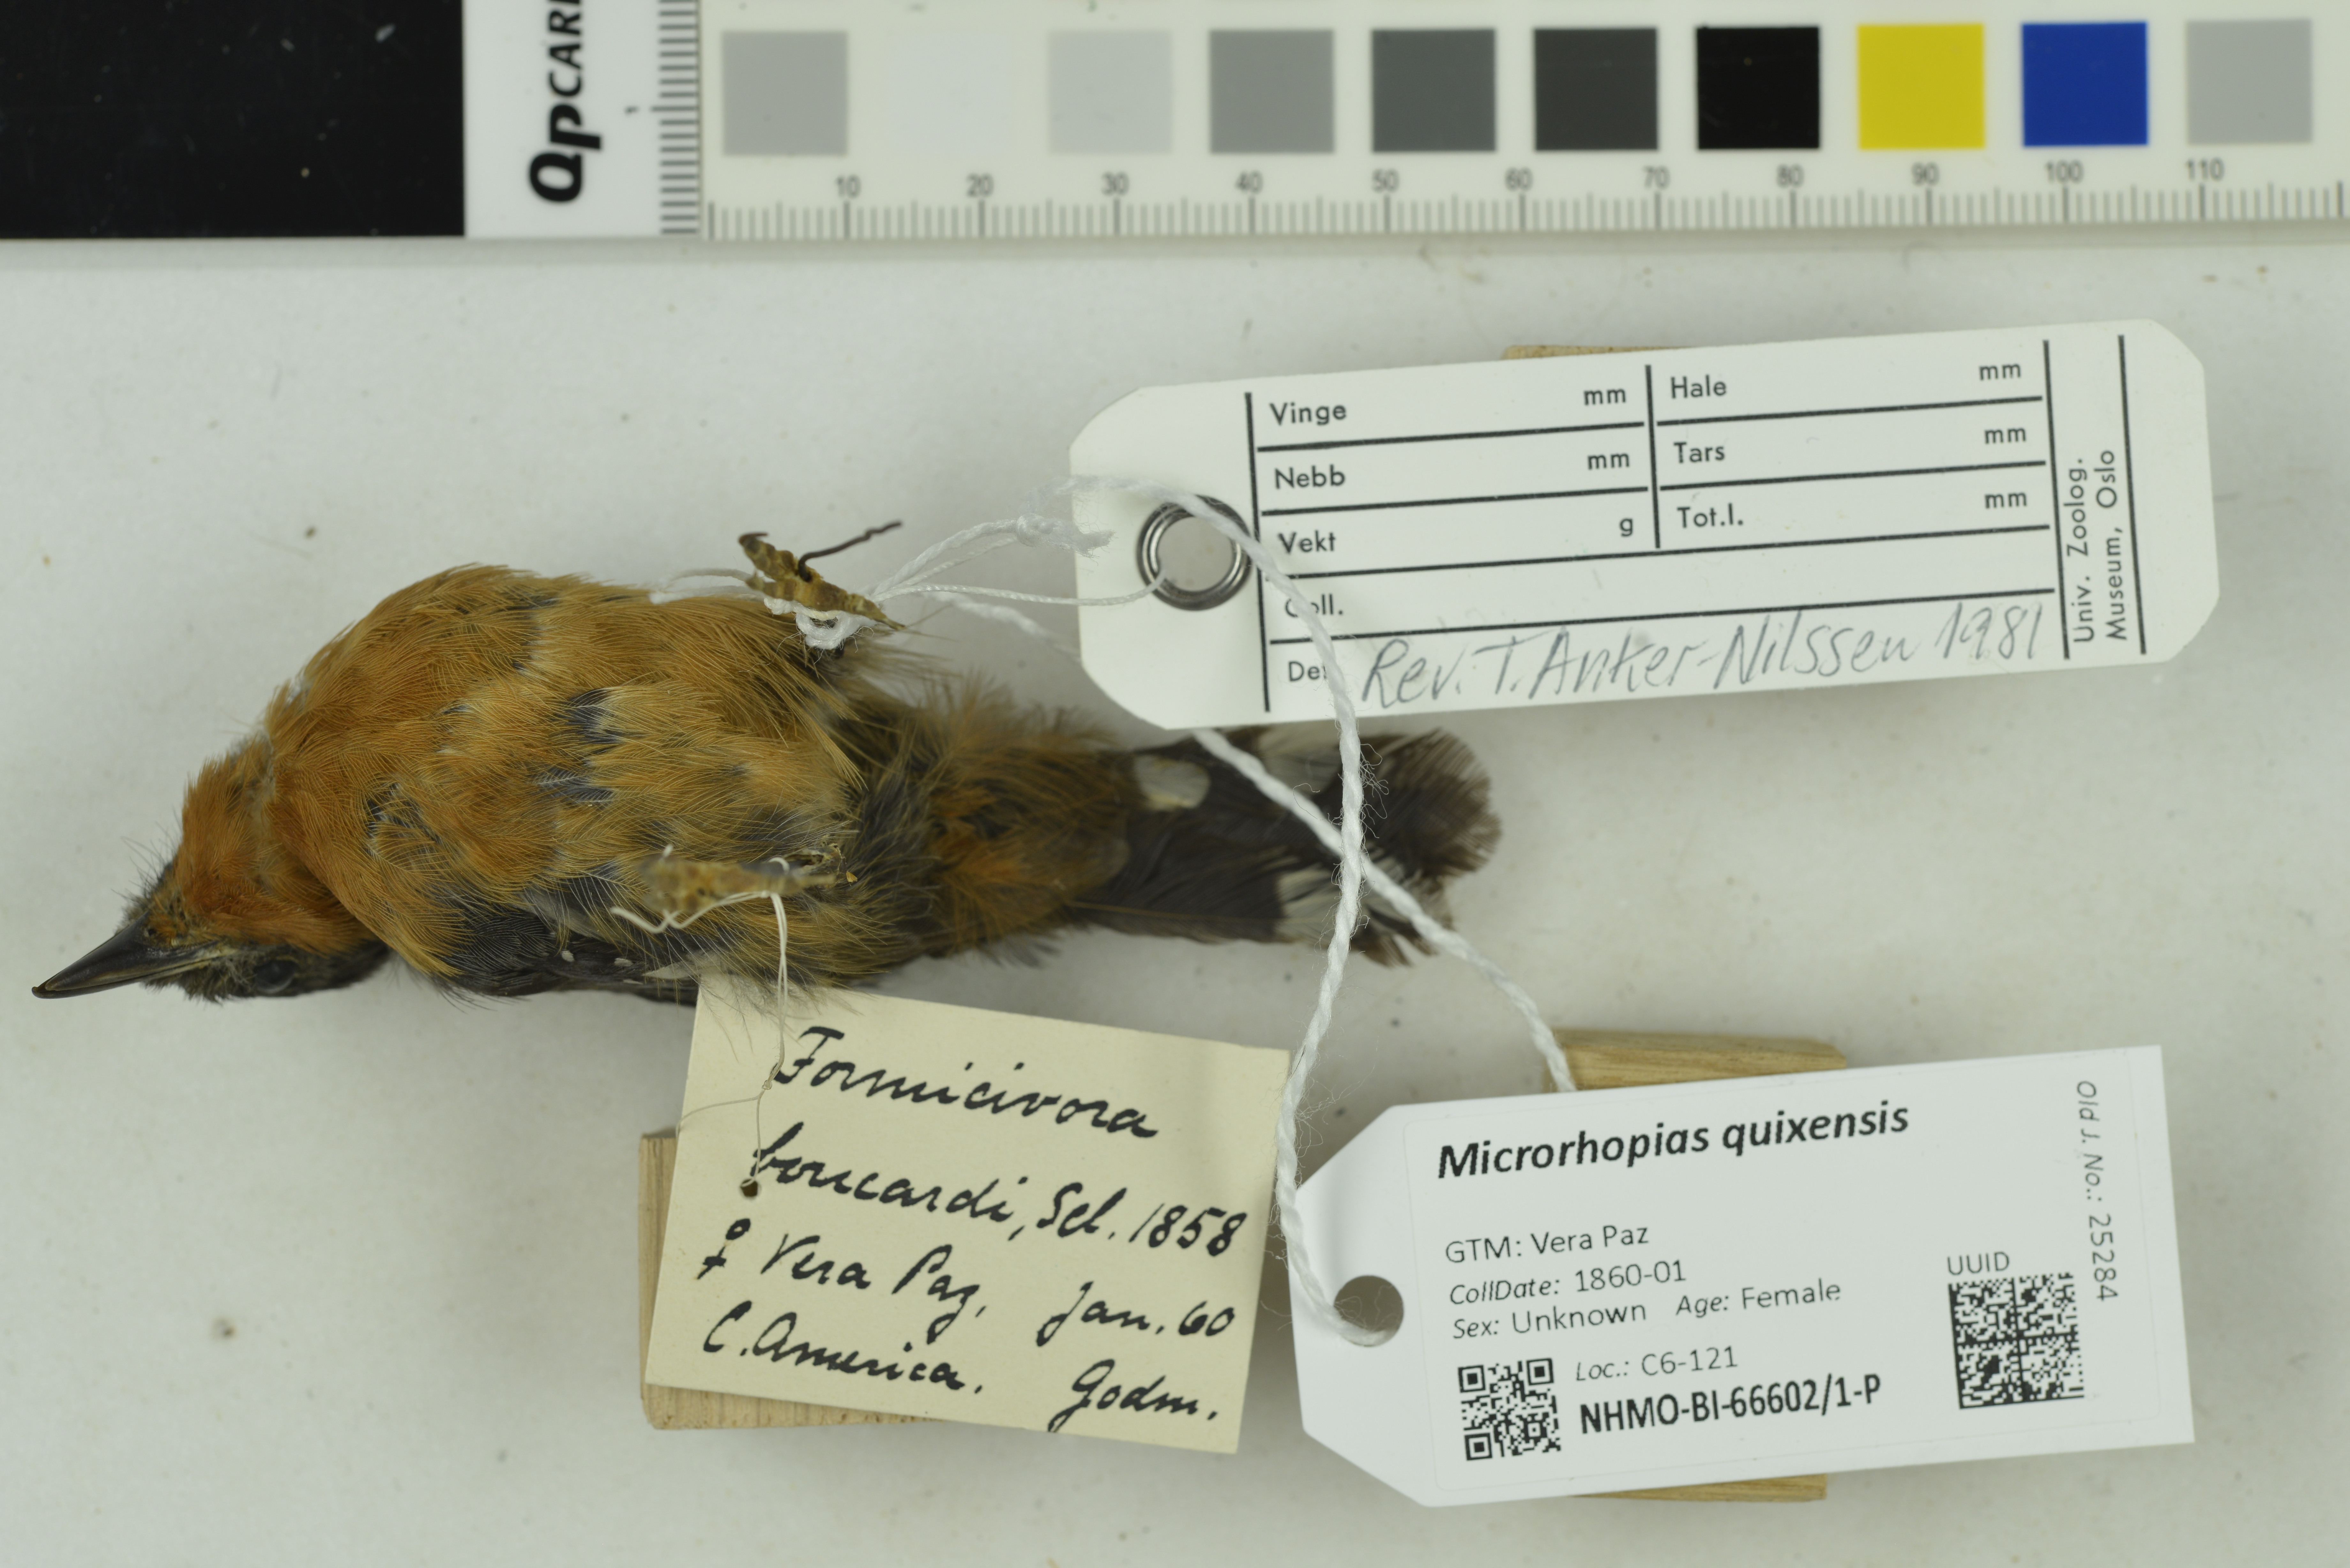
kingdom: Animalia
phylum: Chordata
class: Aves
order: Passeriformes
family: Thamnophilidae
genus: Microrhopias
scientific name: Microrhopias quixensis
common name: Dot-winged antwren
